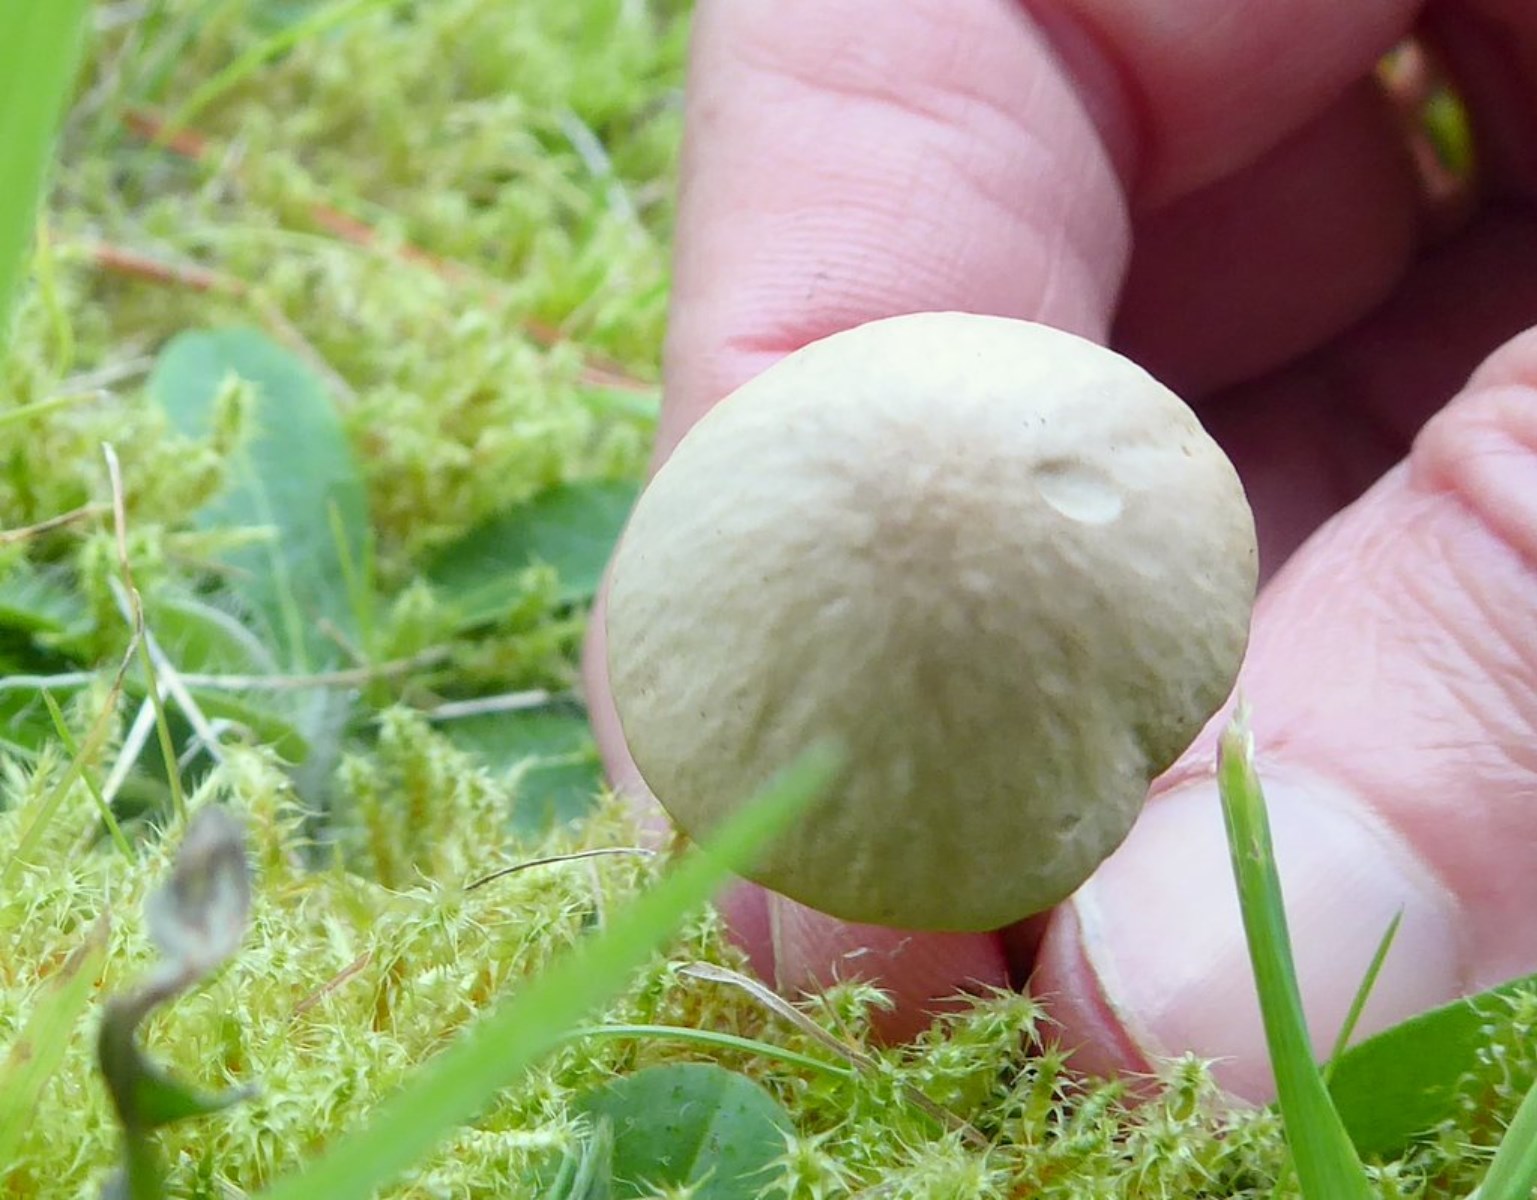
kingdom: Fungi
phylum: Basidiomycota
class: Agaricomycetes
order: Agaricales
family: Bolbitiaceae
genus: Conocybe
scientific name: Conocybe
